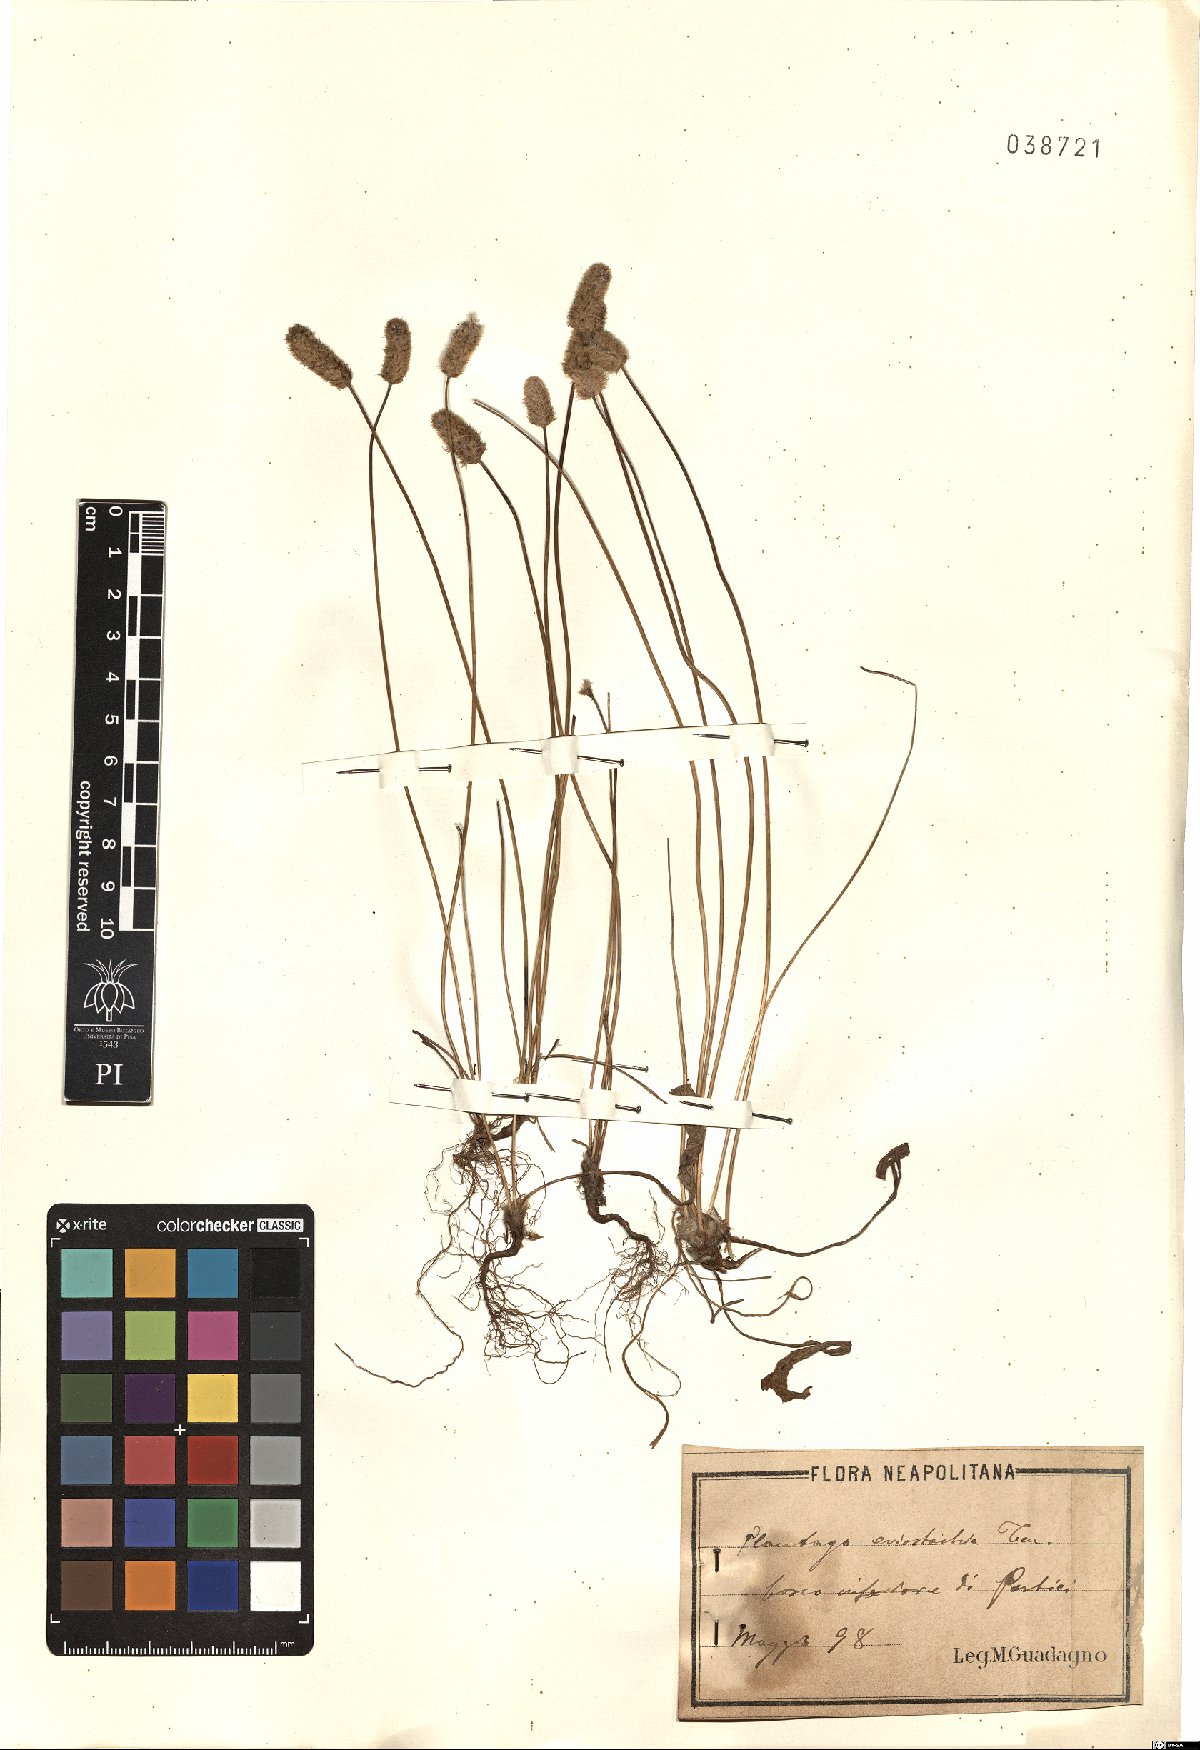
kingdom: Plantae
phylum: Tracheophyta
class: Magnoliopsida
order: Lamiales
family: Plantaginaceae
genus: Plantago
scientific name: Plantago lagopus
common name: Hare-foot plantain
